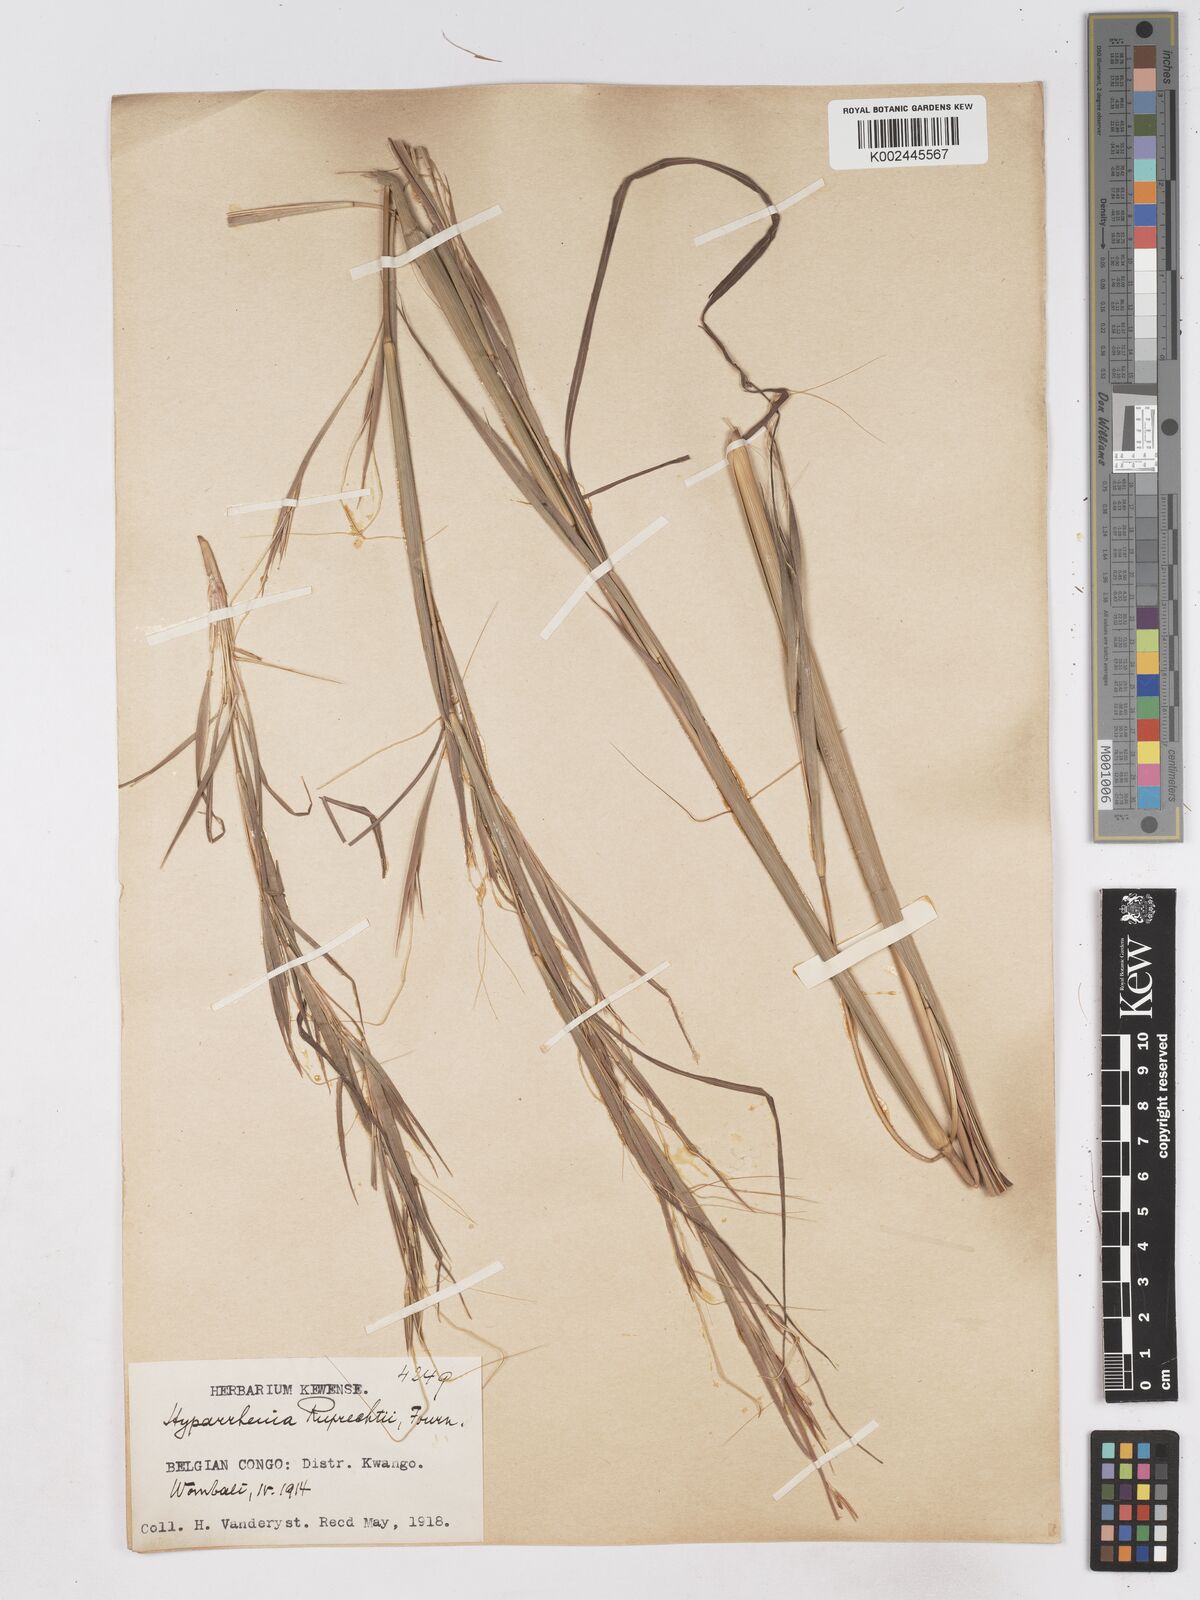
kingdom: Plantae
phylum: Tracheophyta
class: Liliopsida
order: Poales
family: Poaceae
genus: Hyperthelia
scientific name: Hyperthelia dissoluta
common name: Yellow thatching grass
